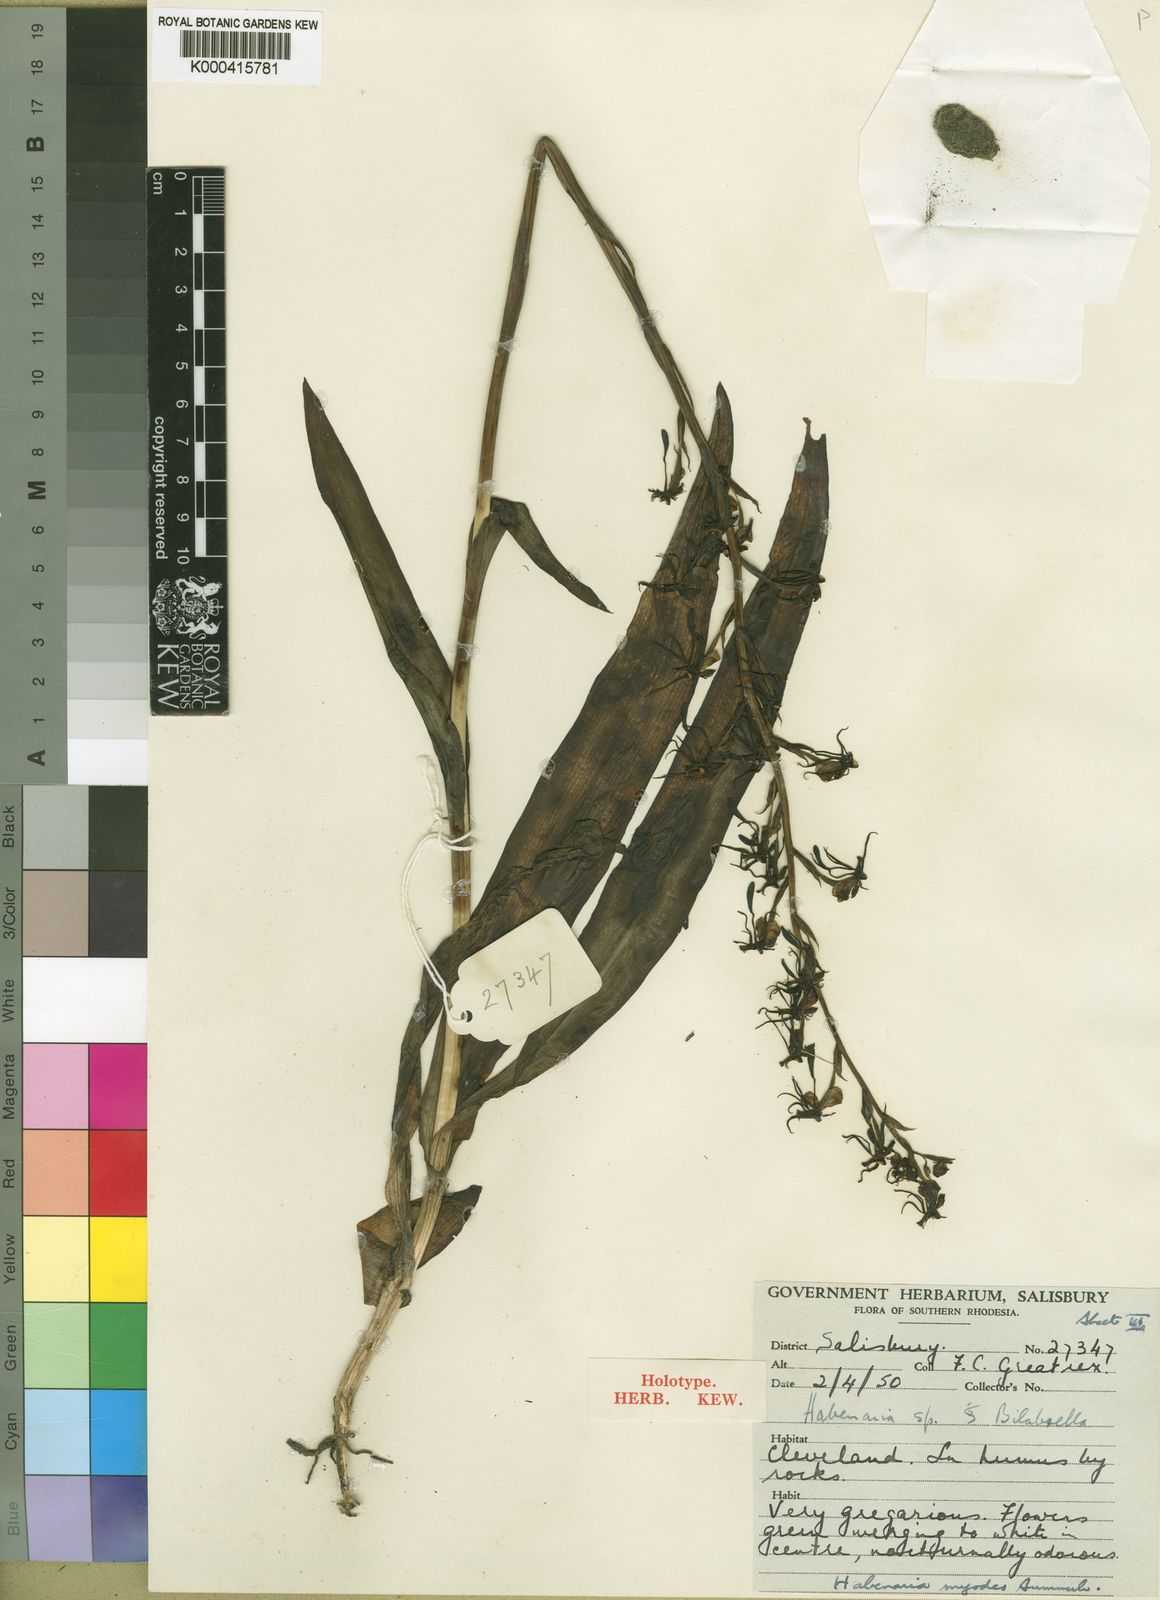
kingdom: Plantae
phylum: Tracheophyta
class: Liliopsida
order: Asparagales
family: Orchidaceae
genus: Habenaria
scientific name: Habenaria myodes
